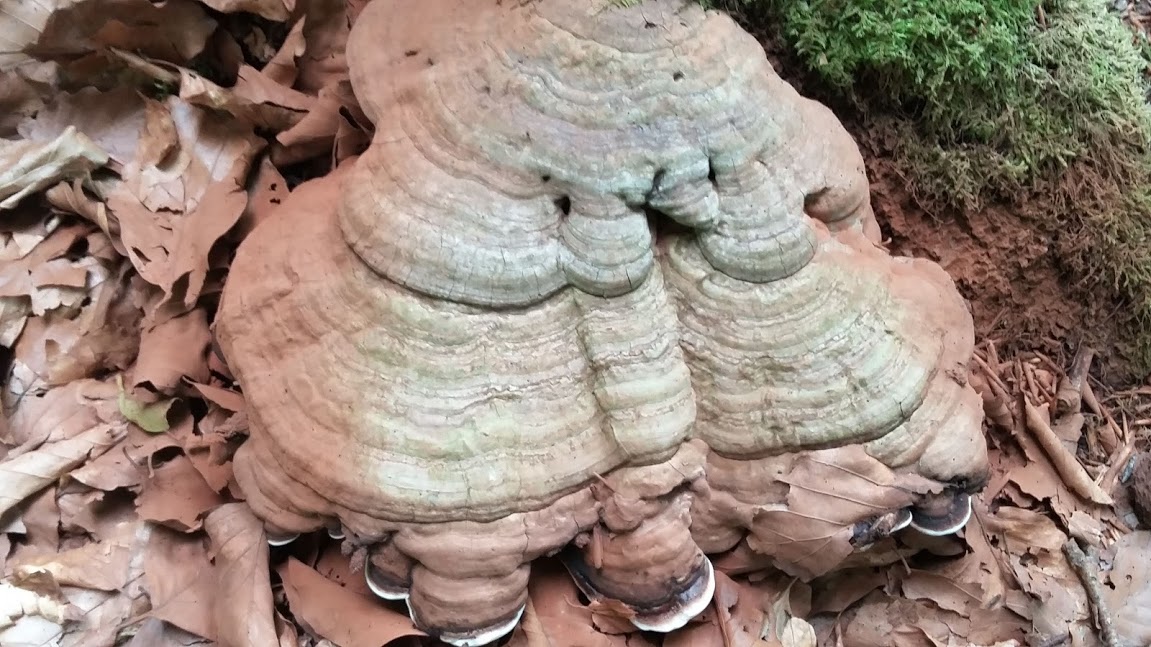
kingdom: Fungi
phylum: Basidiomycota
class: Agaricomycetes
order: Polyporales
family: Polyporaceae
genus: Ganoderma
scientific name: Ganoderma applanatum
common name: flad lakporesvamp
